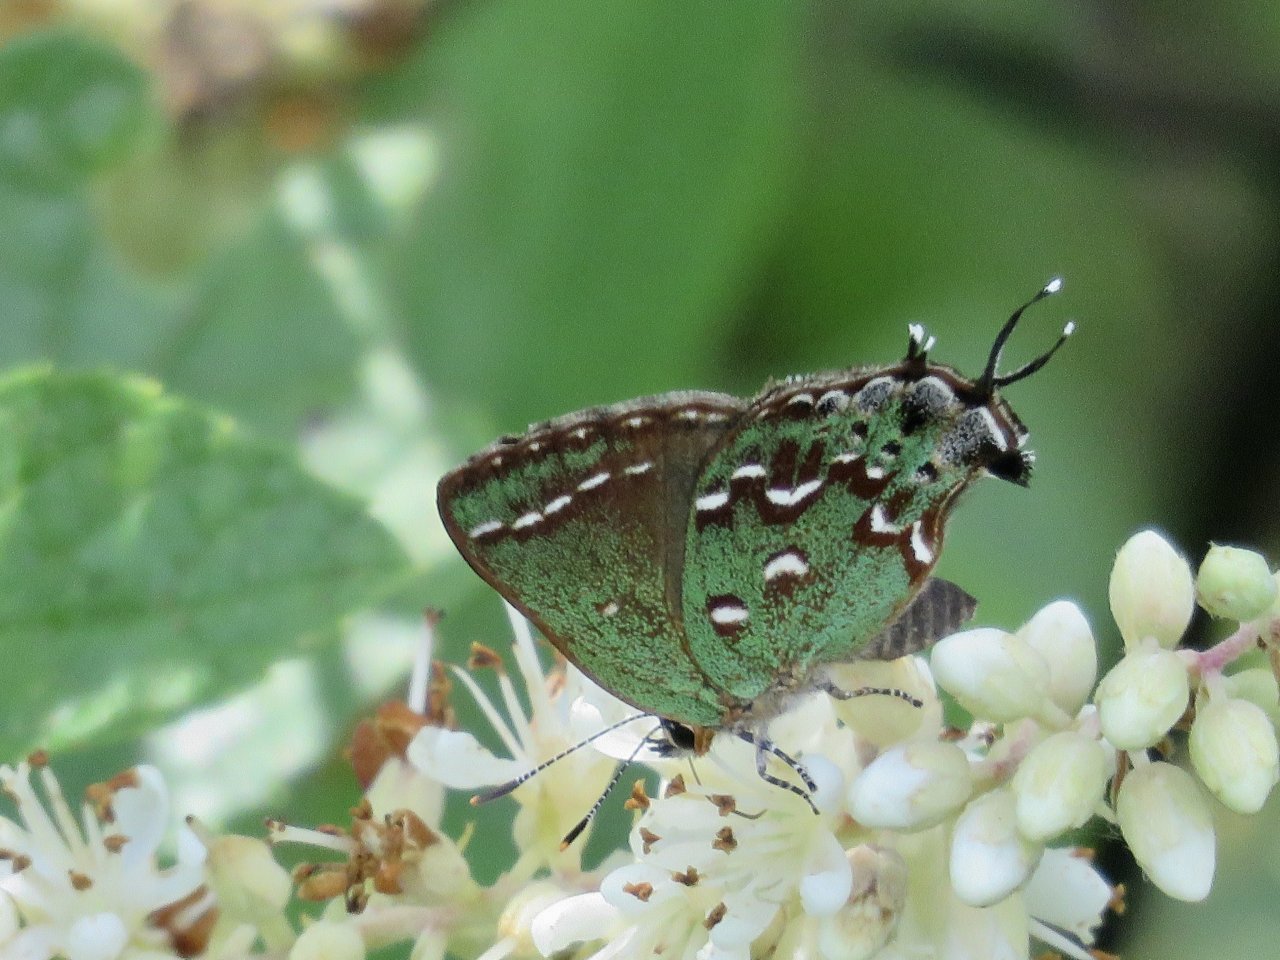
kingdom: Animalia
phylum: Arthropoda
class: Insecta
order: Lepidoptera
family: Lycaenidae
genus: Mitoura
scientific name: Mitoura hesseli
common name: Hessel's Hairstreak
